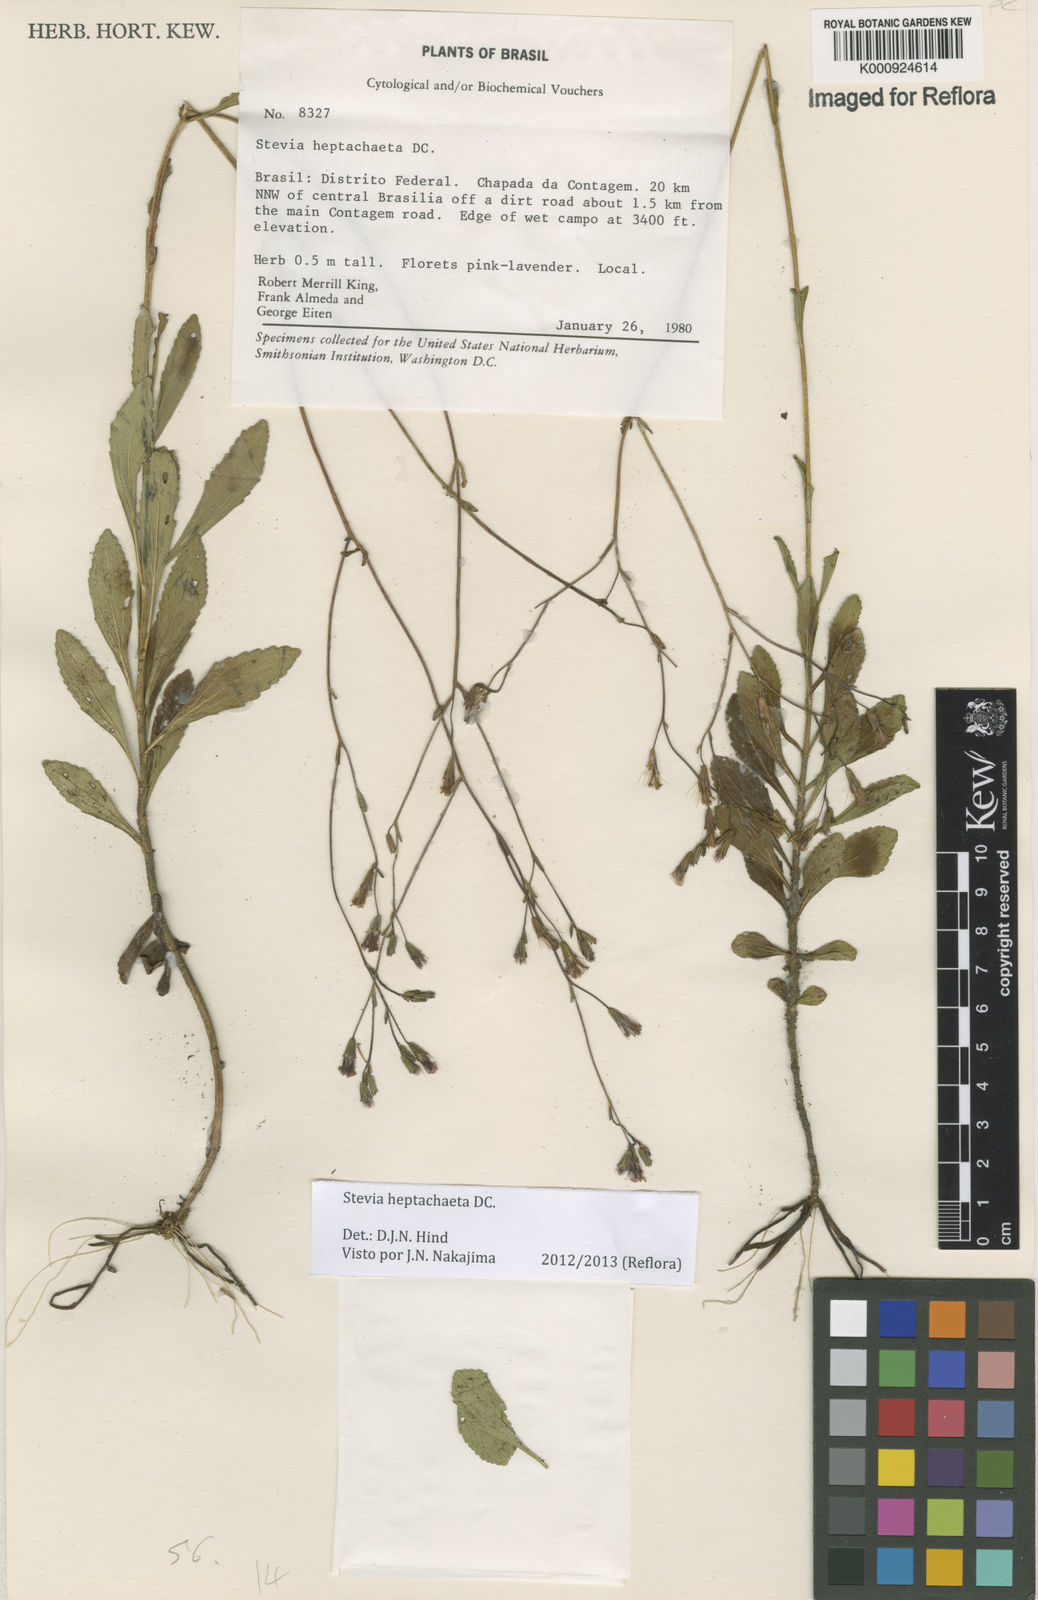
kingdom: Plantae
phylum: Tracheophyta
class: Magnoliopsida
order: Asterales
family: Asteraceae
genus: Stevia
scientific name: Stevia heptachaeta
